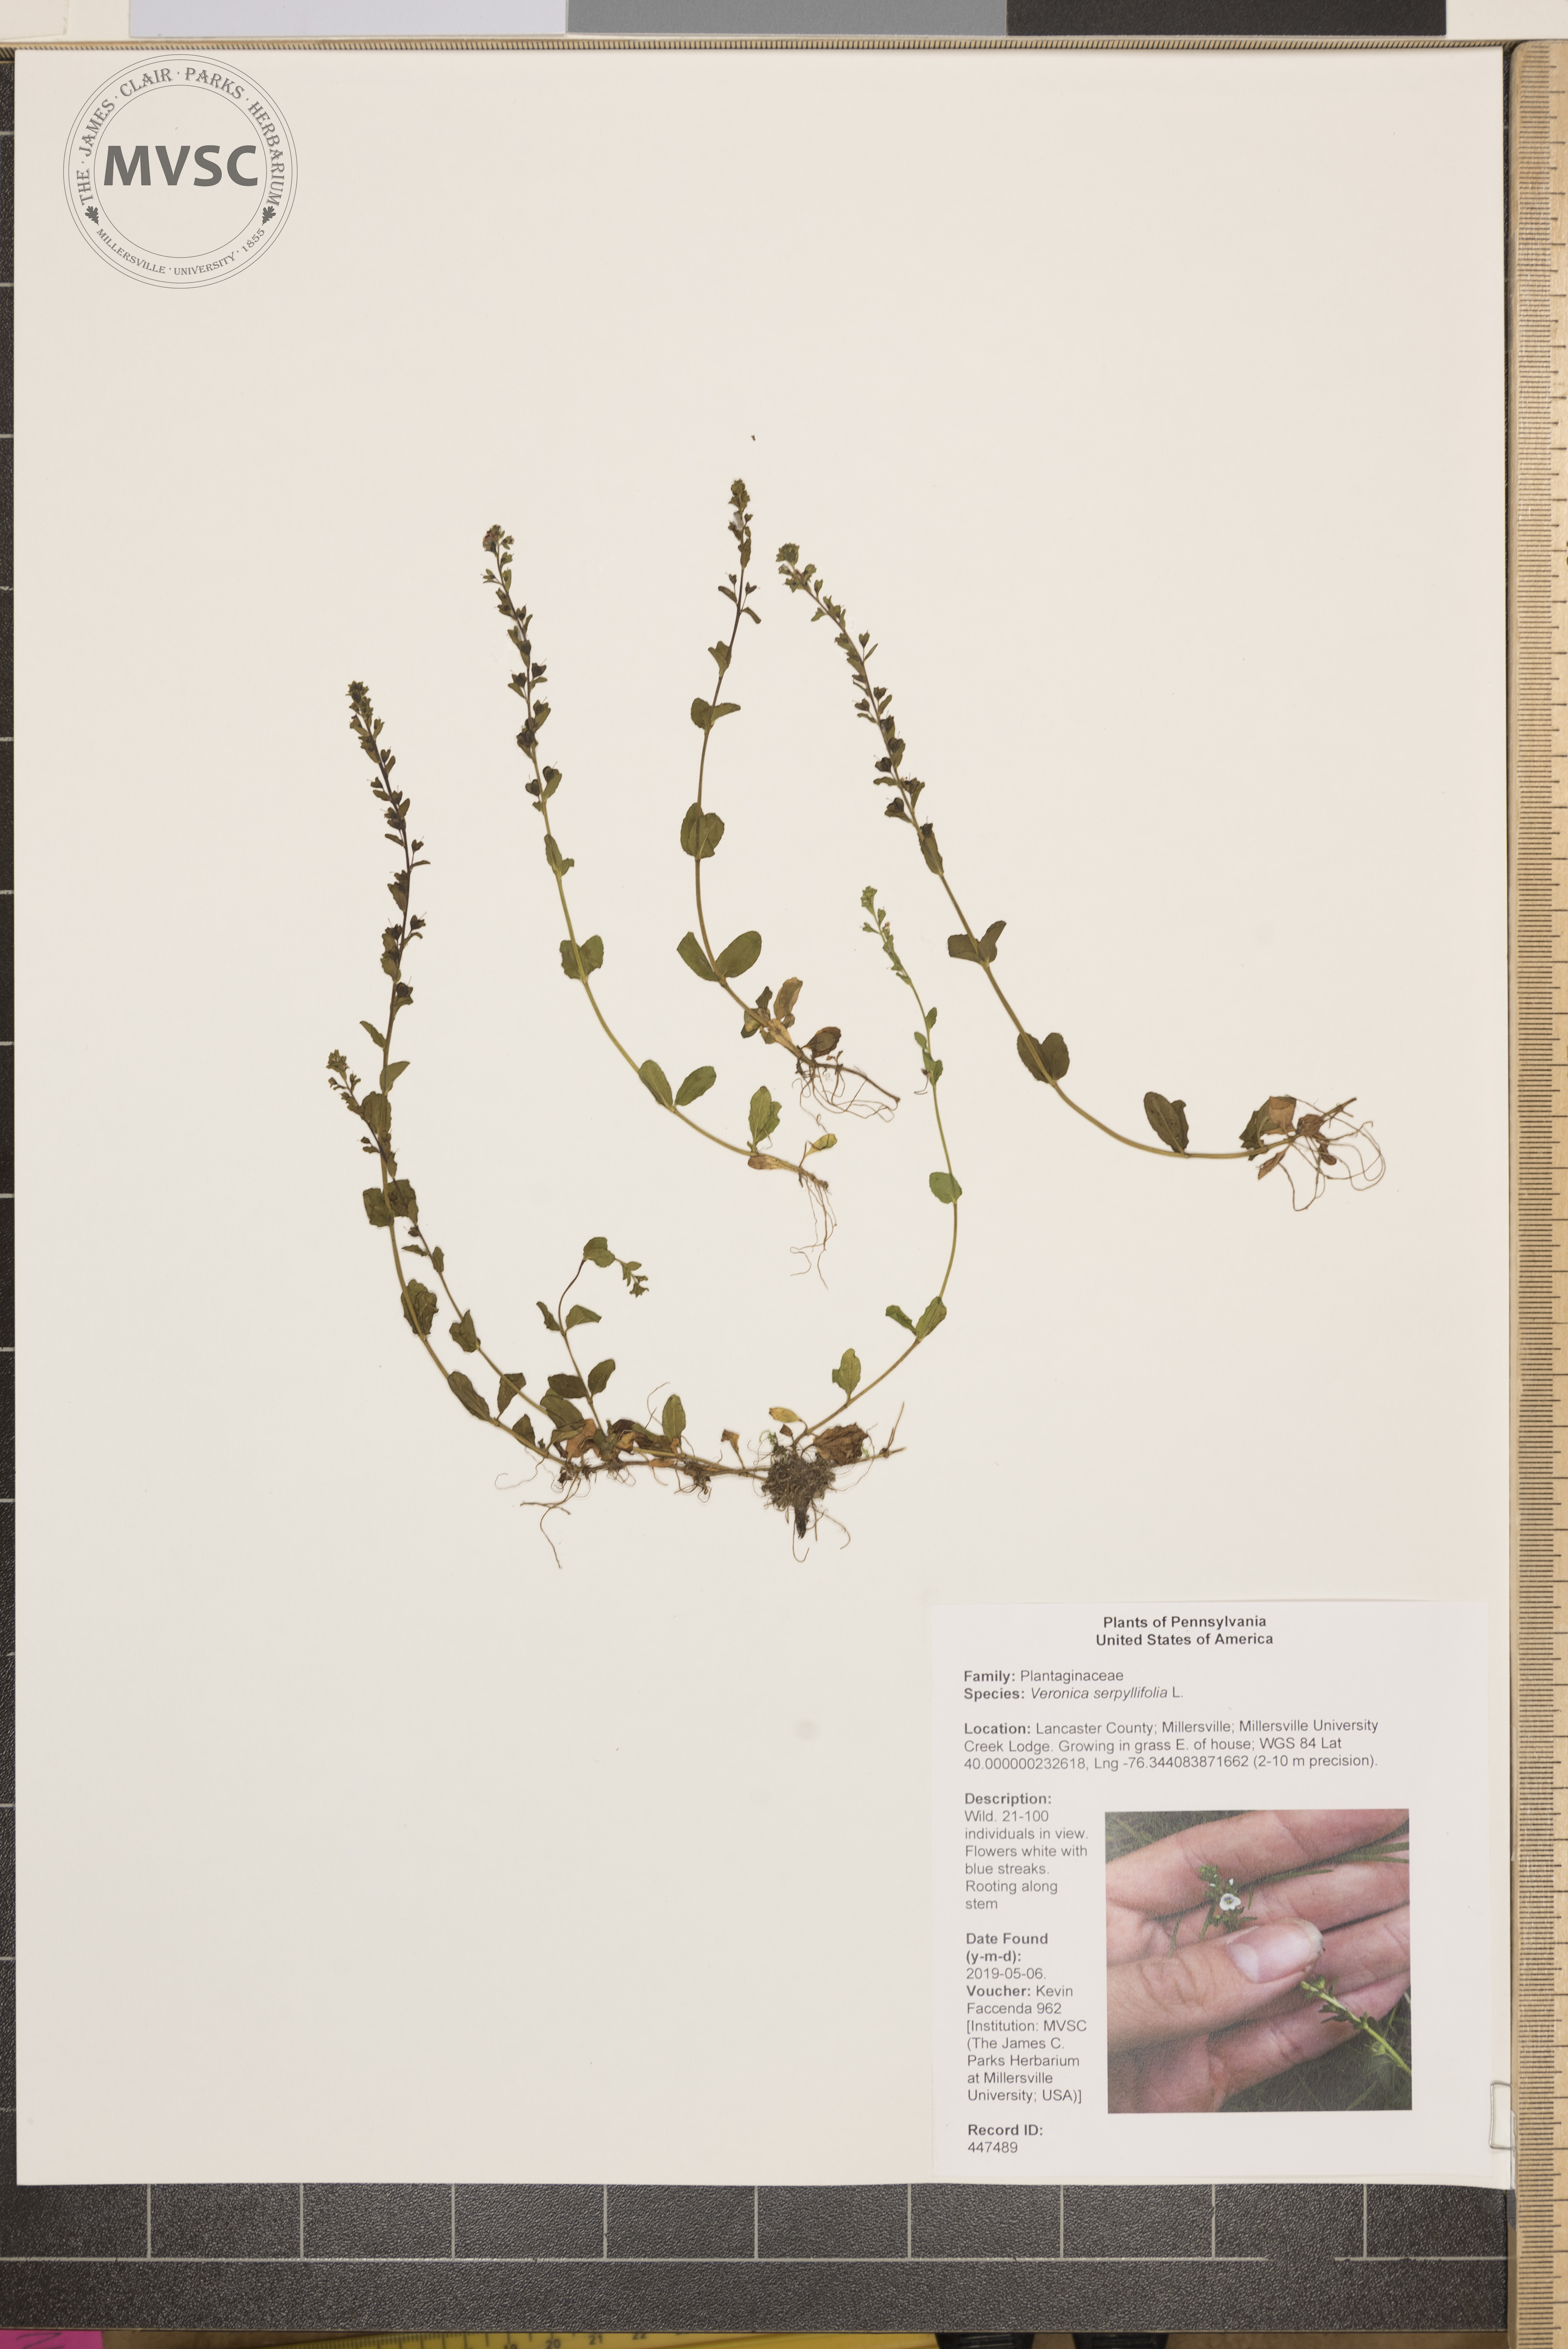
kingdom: Plantae
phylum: Tracheophyta
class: Magnoliopsida
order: Lamiales
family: Plantaginaceae
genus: Veronica
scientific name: Veronica serpyllifolia
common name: Thyme-leaved speedwell
